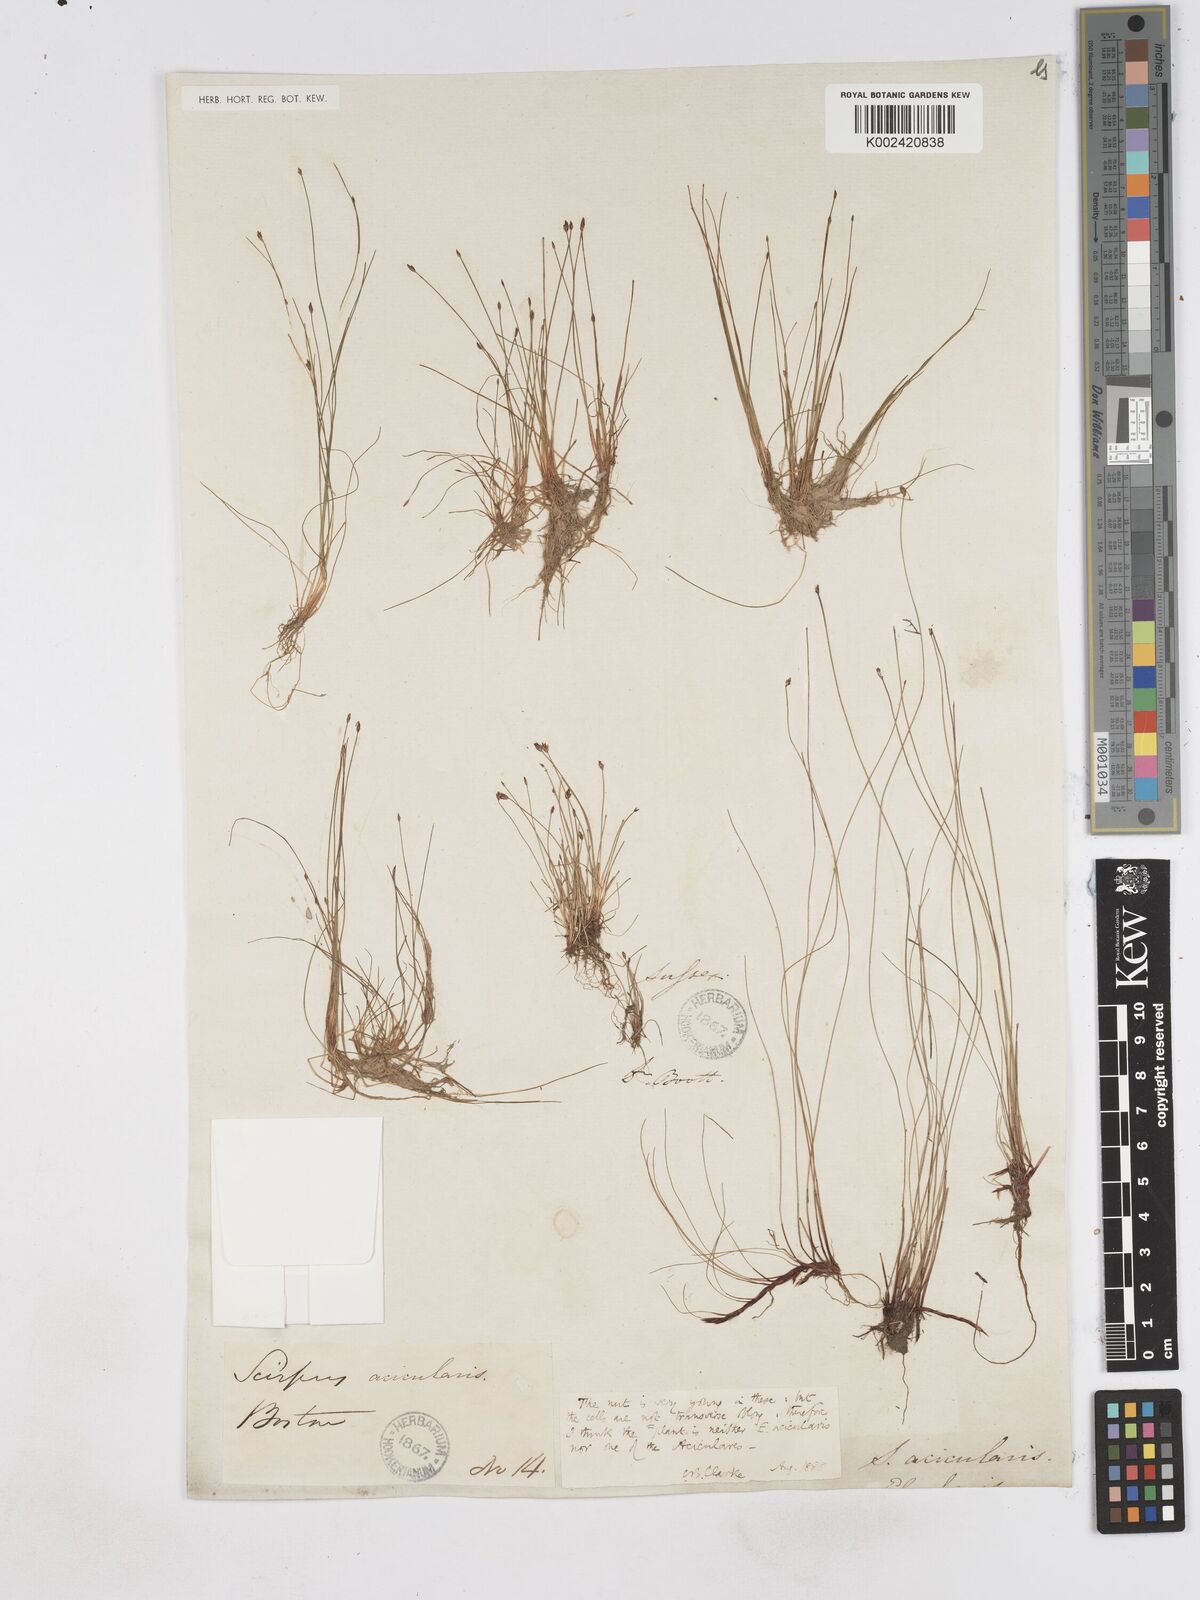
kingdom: Plantae
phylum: Tracheophyta
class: Liliopsida
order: Poales
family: Cyperaceae
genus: Eleocharis
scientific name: Eleocharis acicularis
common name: Needle spike-rush
